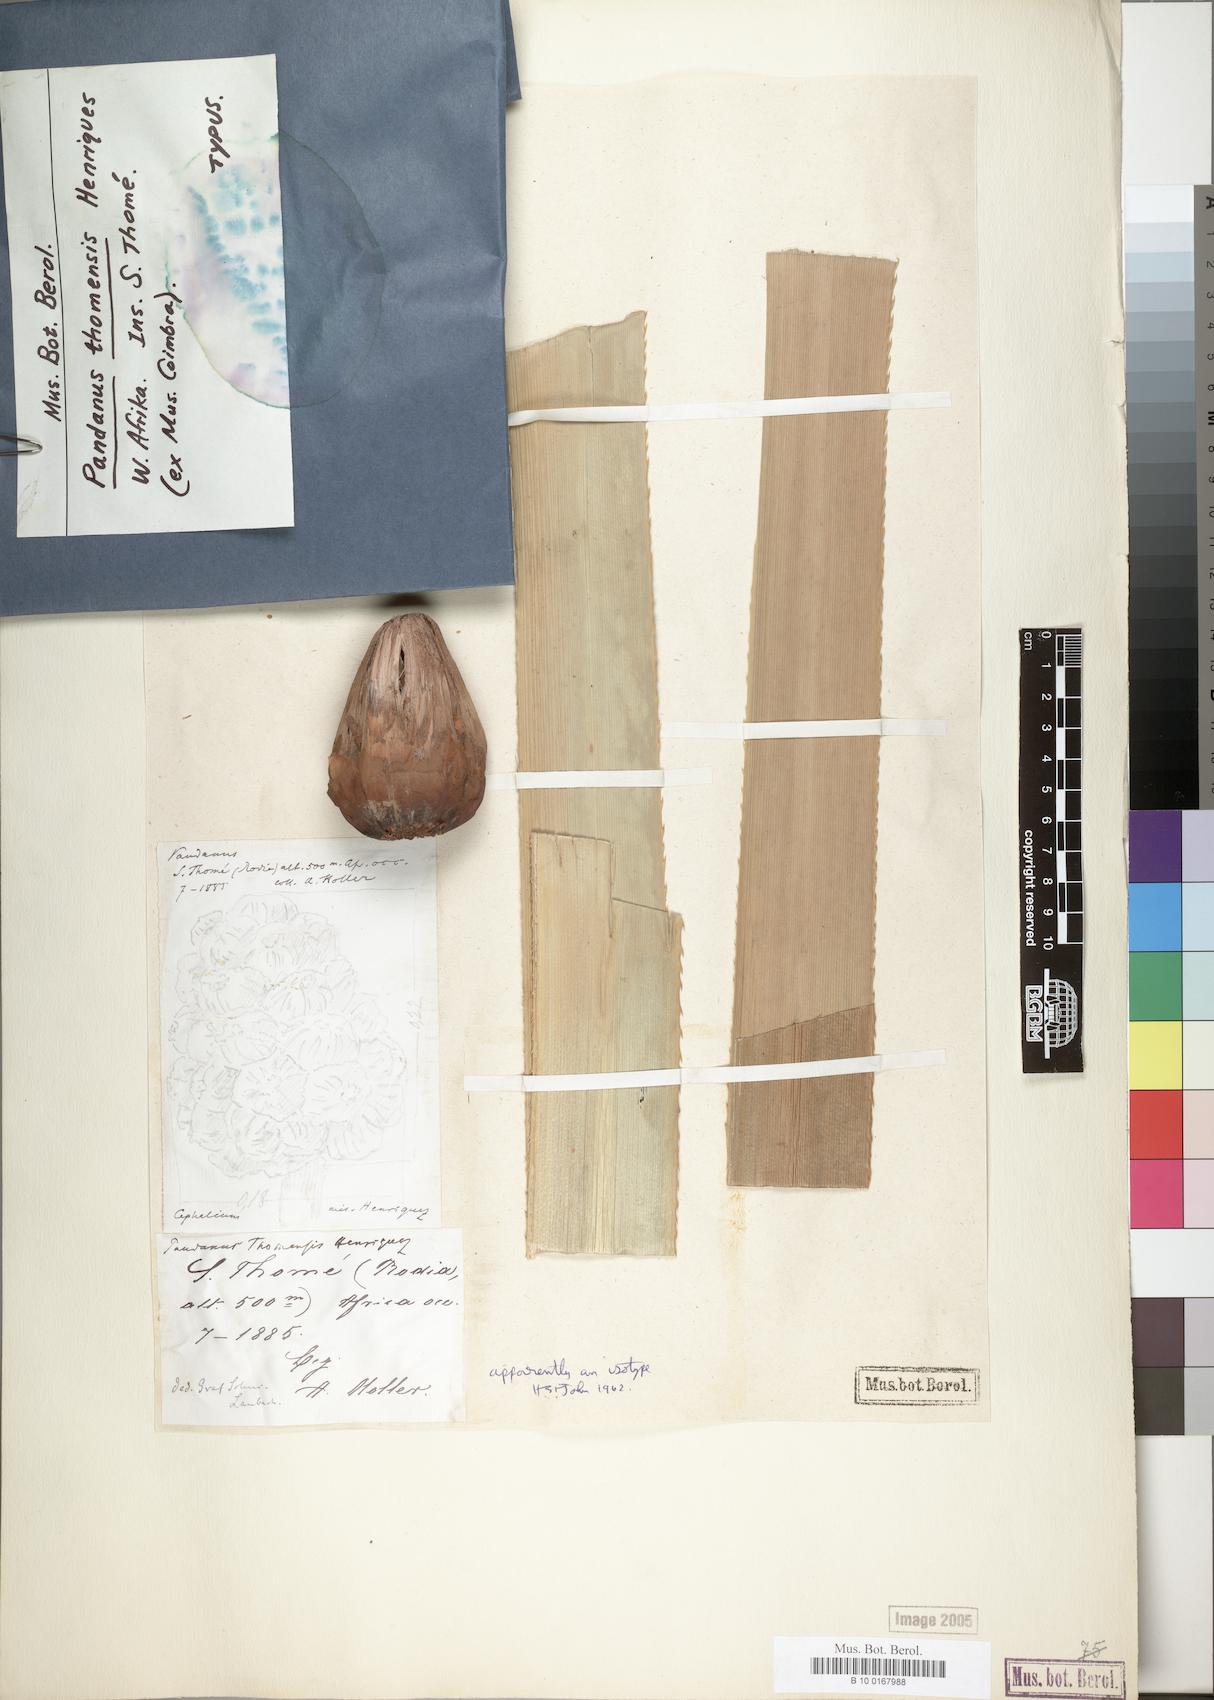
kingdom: Plantae
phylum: Tracheophyta
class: Liliopsida
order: Pandanales
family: Pandanaceae
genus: Pandanus
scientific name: Pandanus thomensis
